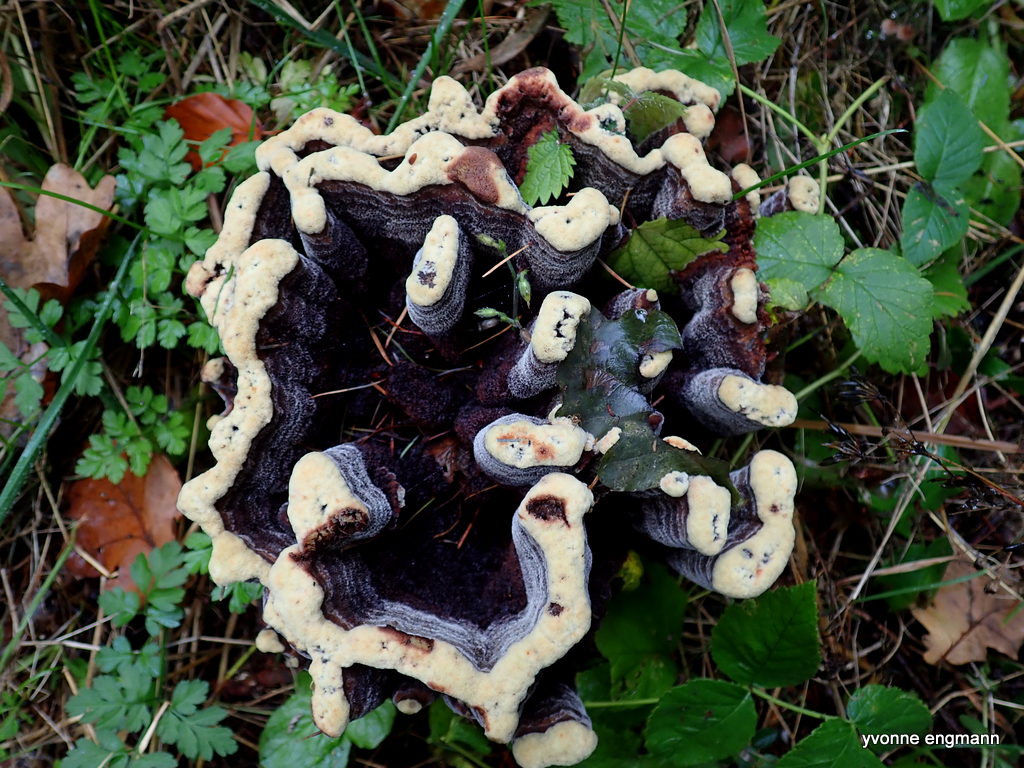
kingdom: Fungi
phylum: Basidiomycota
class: Agaricomycetes
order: Polyporales
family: Laetiporaceae
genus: Phaeolus
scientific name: Phaeolus schweinitzii
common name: brunporesvamp
